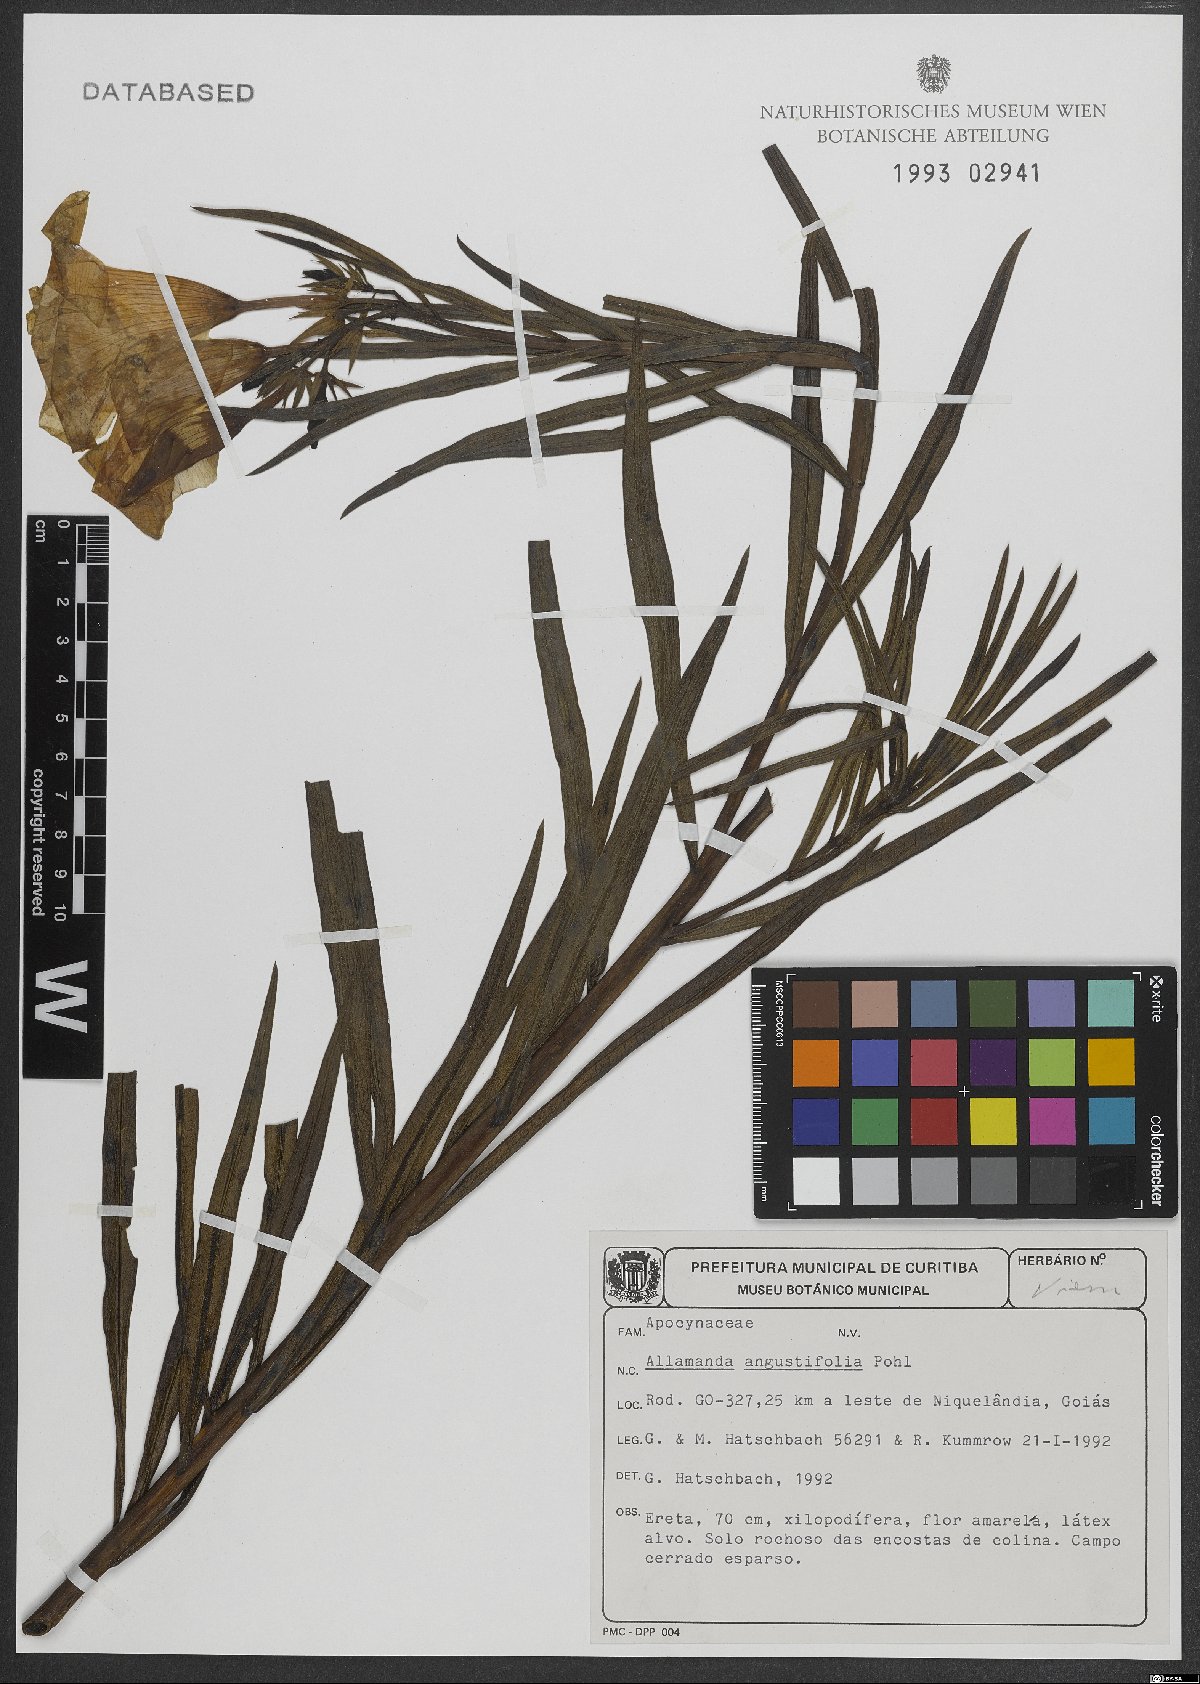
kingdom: Plantae
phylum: Tracheophyta
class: Magnoliopsida
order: Gentianales
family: Apocynaceae
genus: Allamanda
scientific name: Allamanda angustifolia
